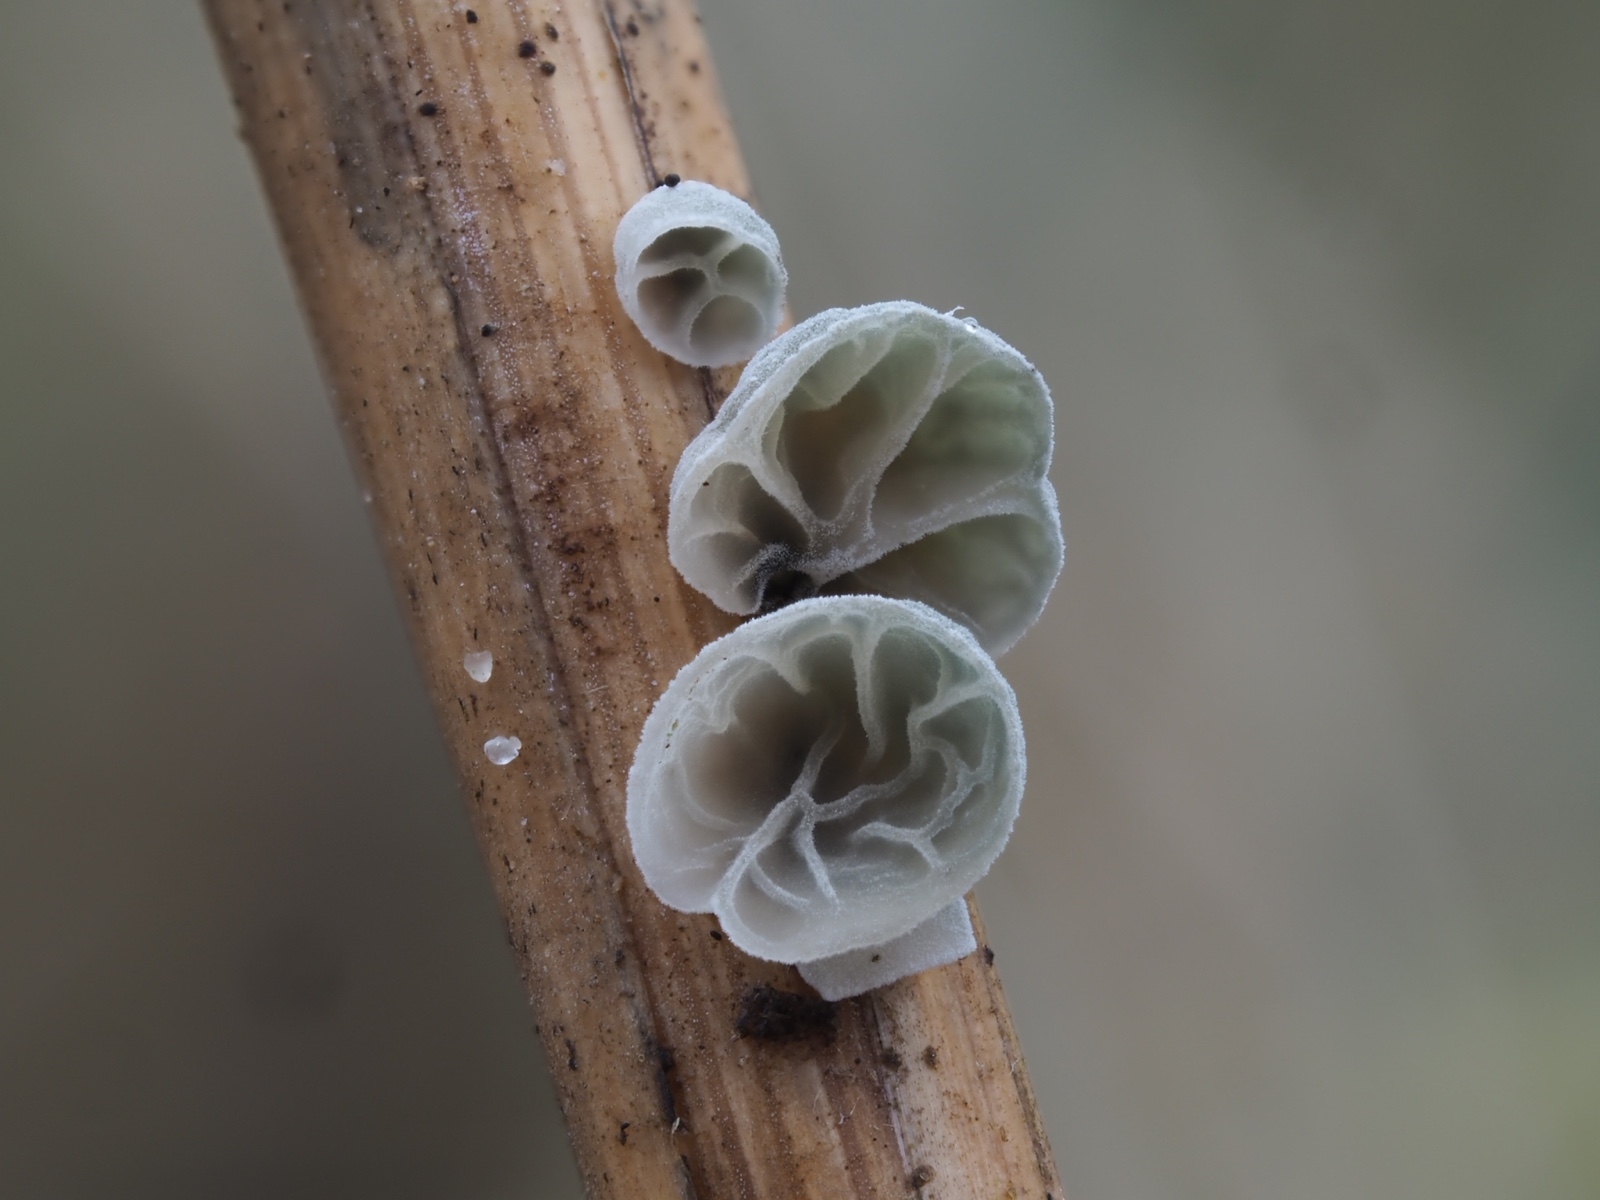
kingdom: Fungi
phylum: Basidiomycota
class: Agaricomycetes
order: Agaricales
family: Marasmiaceae
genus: Campanella
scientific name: Campanella caesia
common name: bruskøre
